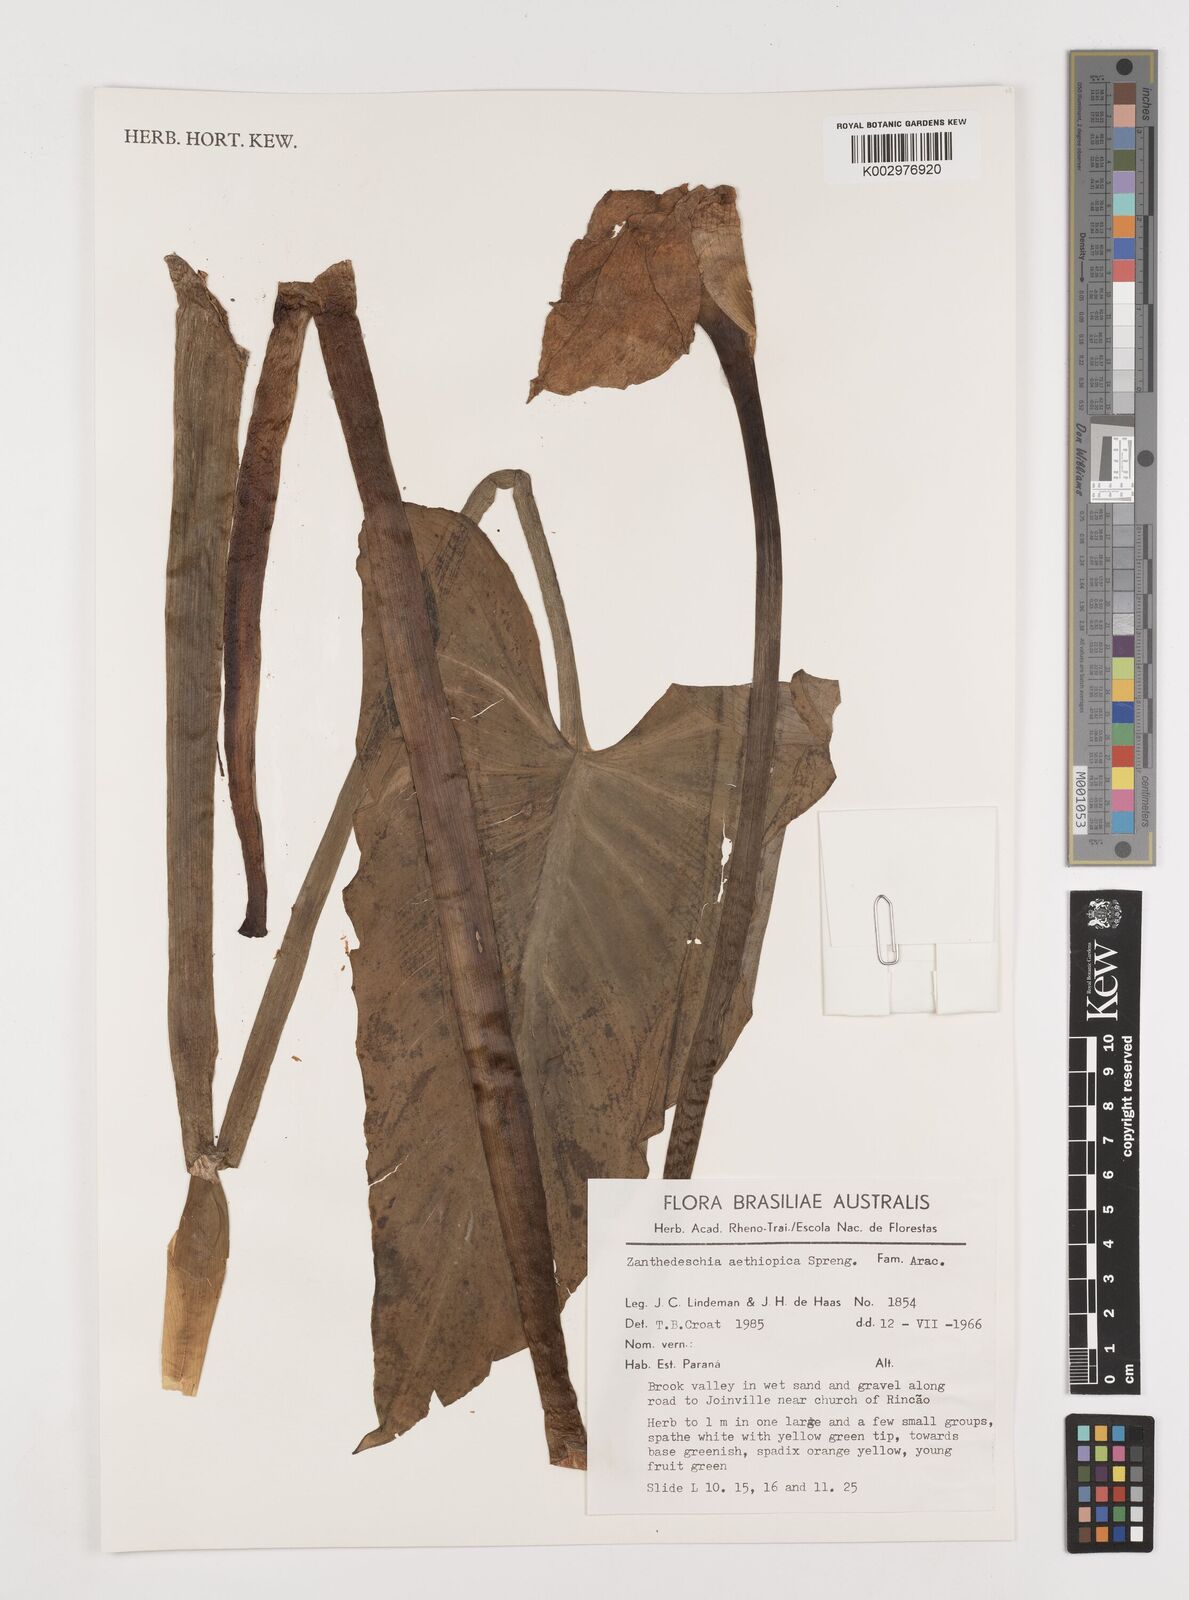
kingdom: Plantae
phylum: Tracheophyta
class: Liliopsida
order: Alismatales
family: Araceae
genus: Zantedeschia
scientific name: Zantedeschia aethiopica
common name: Altar-lily
